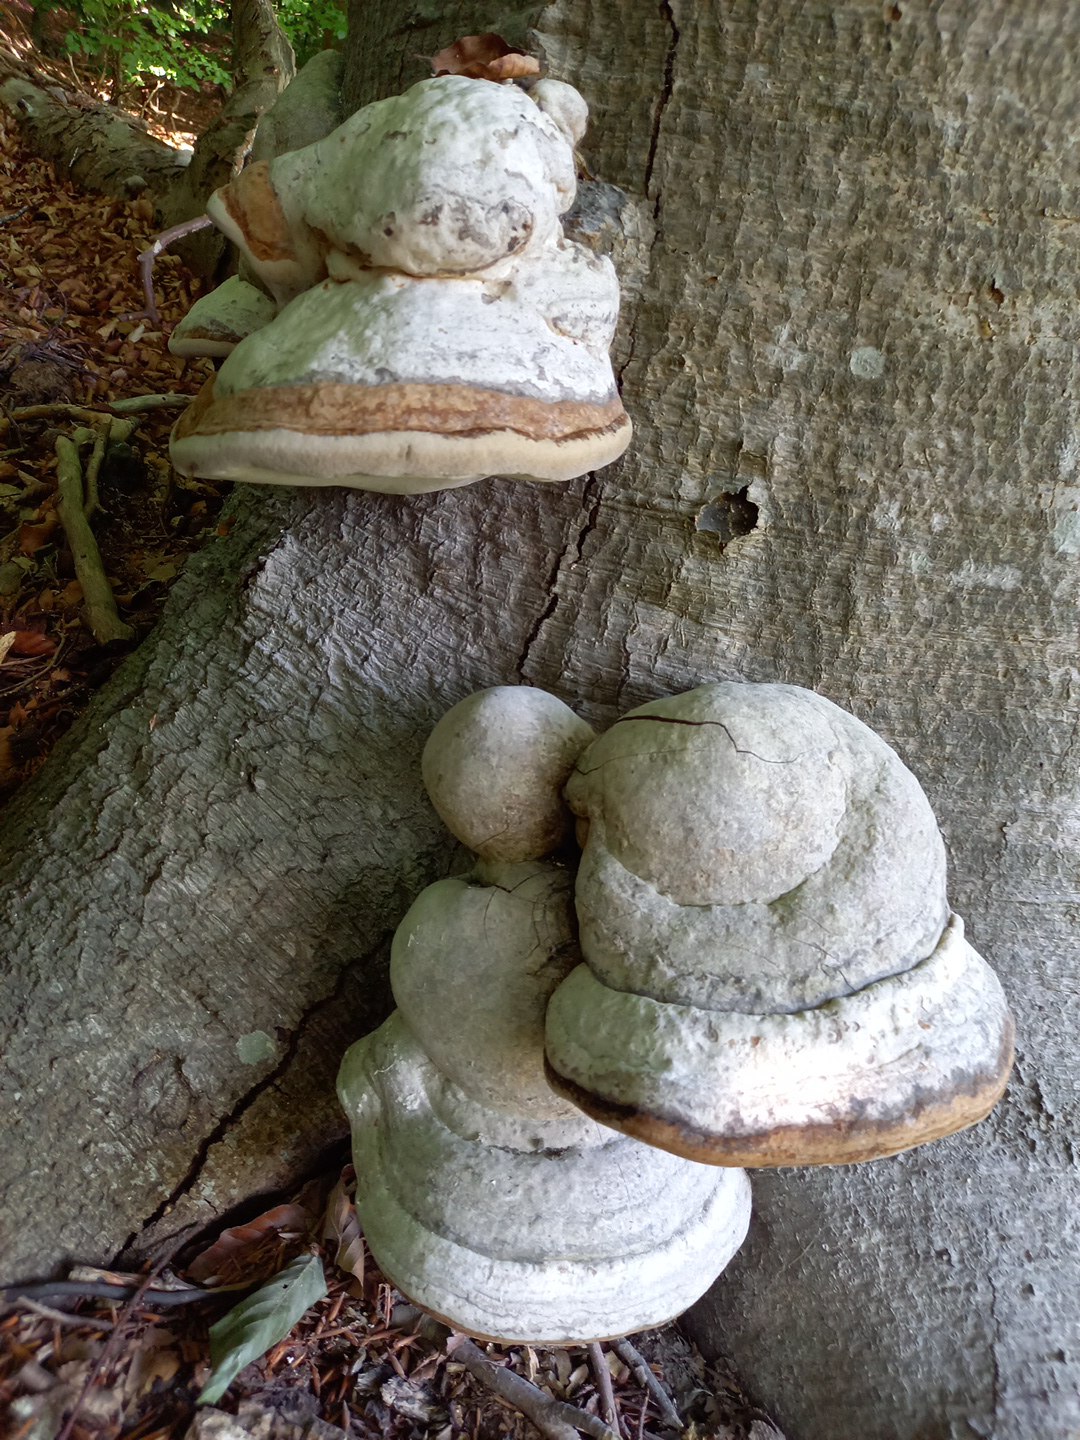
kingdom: Fungi
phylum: Basidiomycota
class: Agaricomycetes
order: Polyporales
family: Polyporaceae
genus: Fomes
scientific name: Fomes fomentarius
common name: tøndersvamp
